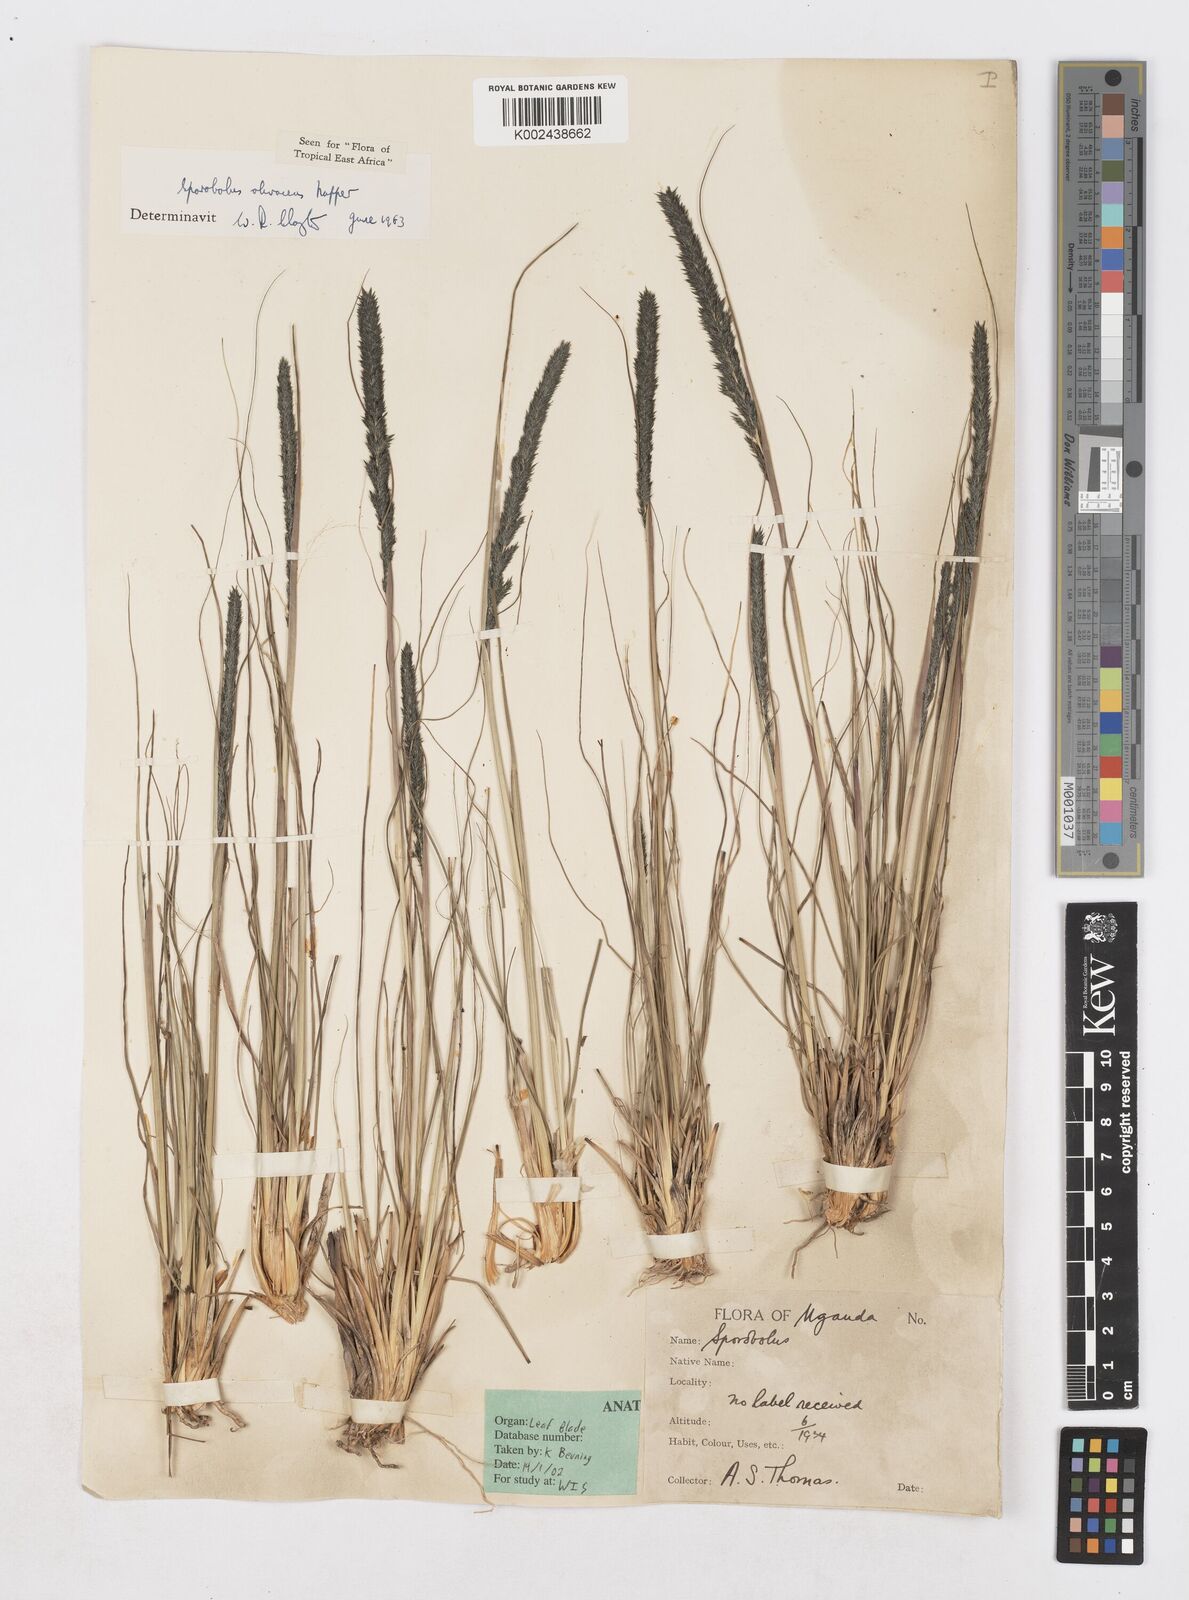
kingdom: Plantae
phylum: Tracheophyta
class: Liliopsida
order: Poales
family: Poaceae
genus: Sporobolus
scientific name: Sporobolus olivaceus
